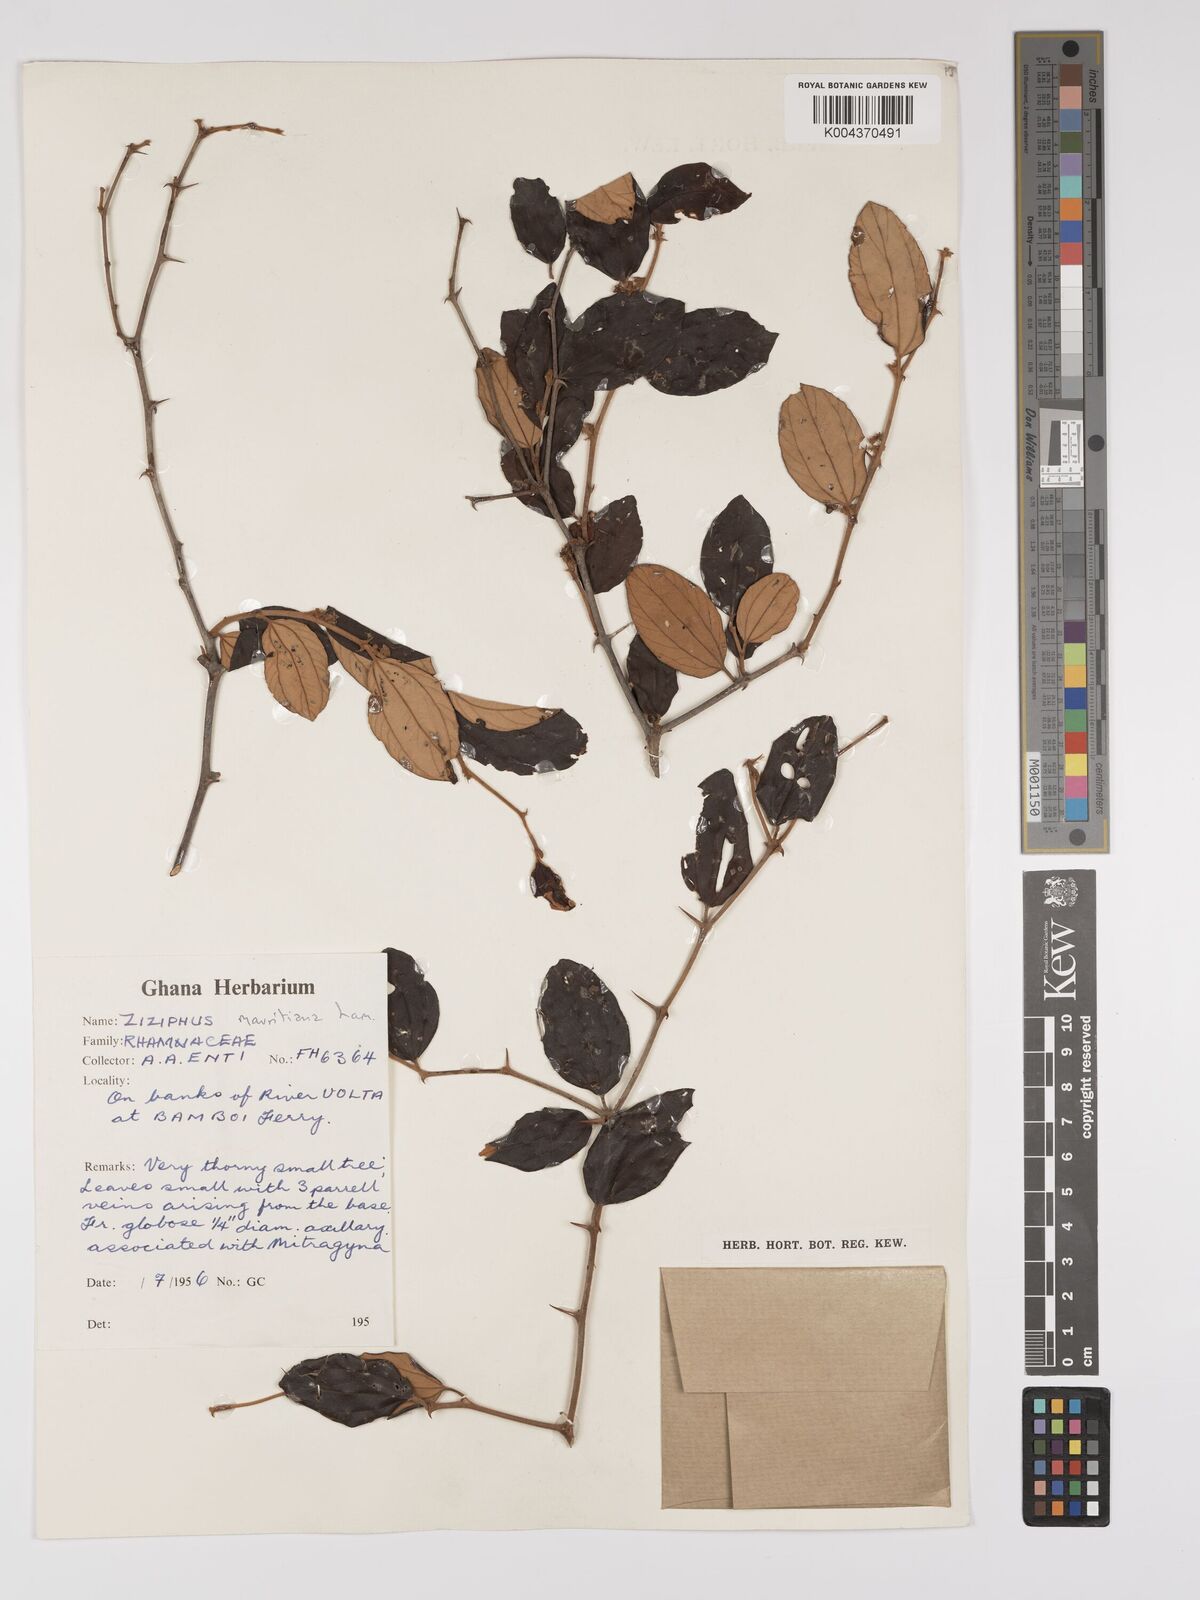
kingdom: Plantae
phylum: Tracheophyta
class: Magnoliopsida
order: Rosales
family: Rhamnaceae
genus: Ziziphus
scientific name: Ziziphus mauritiana
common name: Indian jujube
